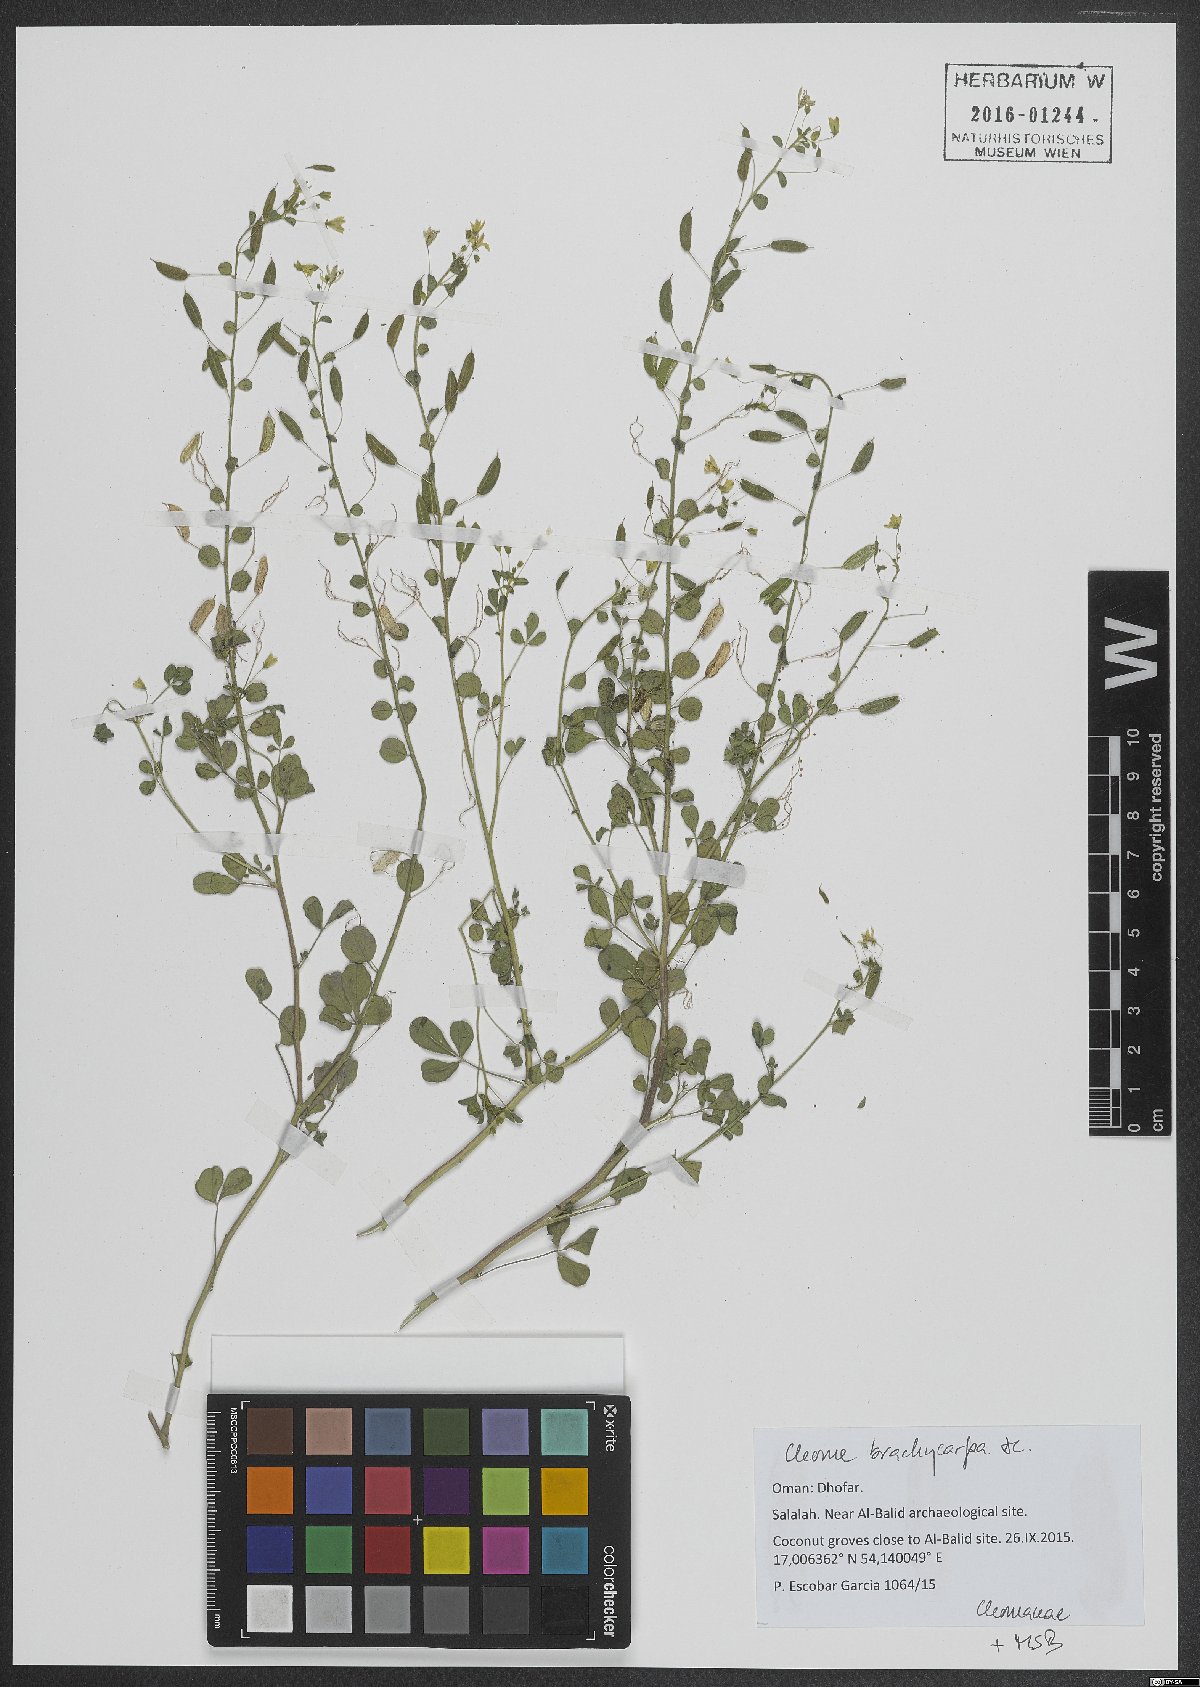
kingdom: Plantae
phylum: Tracheophyta
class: Magnoliopsida
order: Brassicales
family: Cleomaceae
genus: Stylidocleome
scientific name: Stylidocleome brachycarpa
